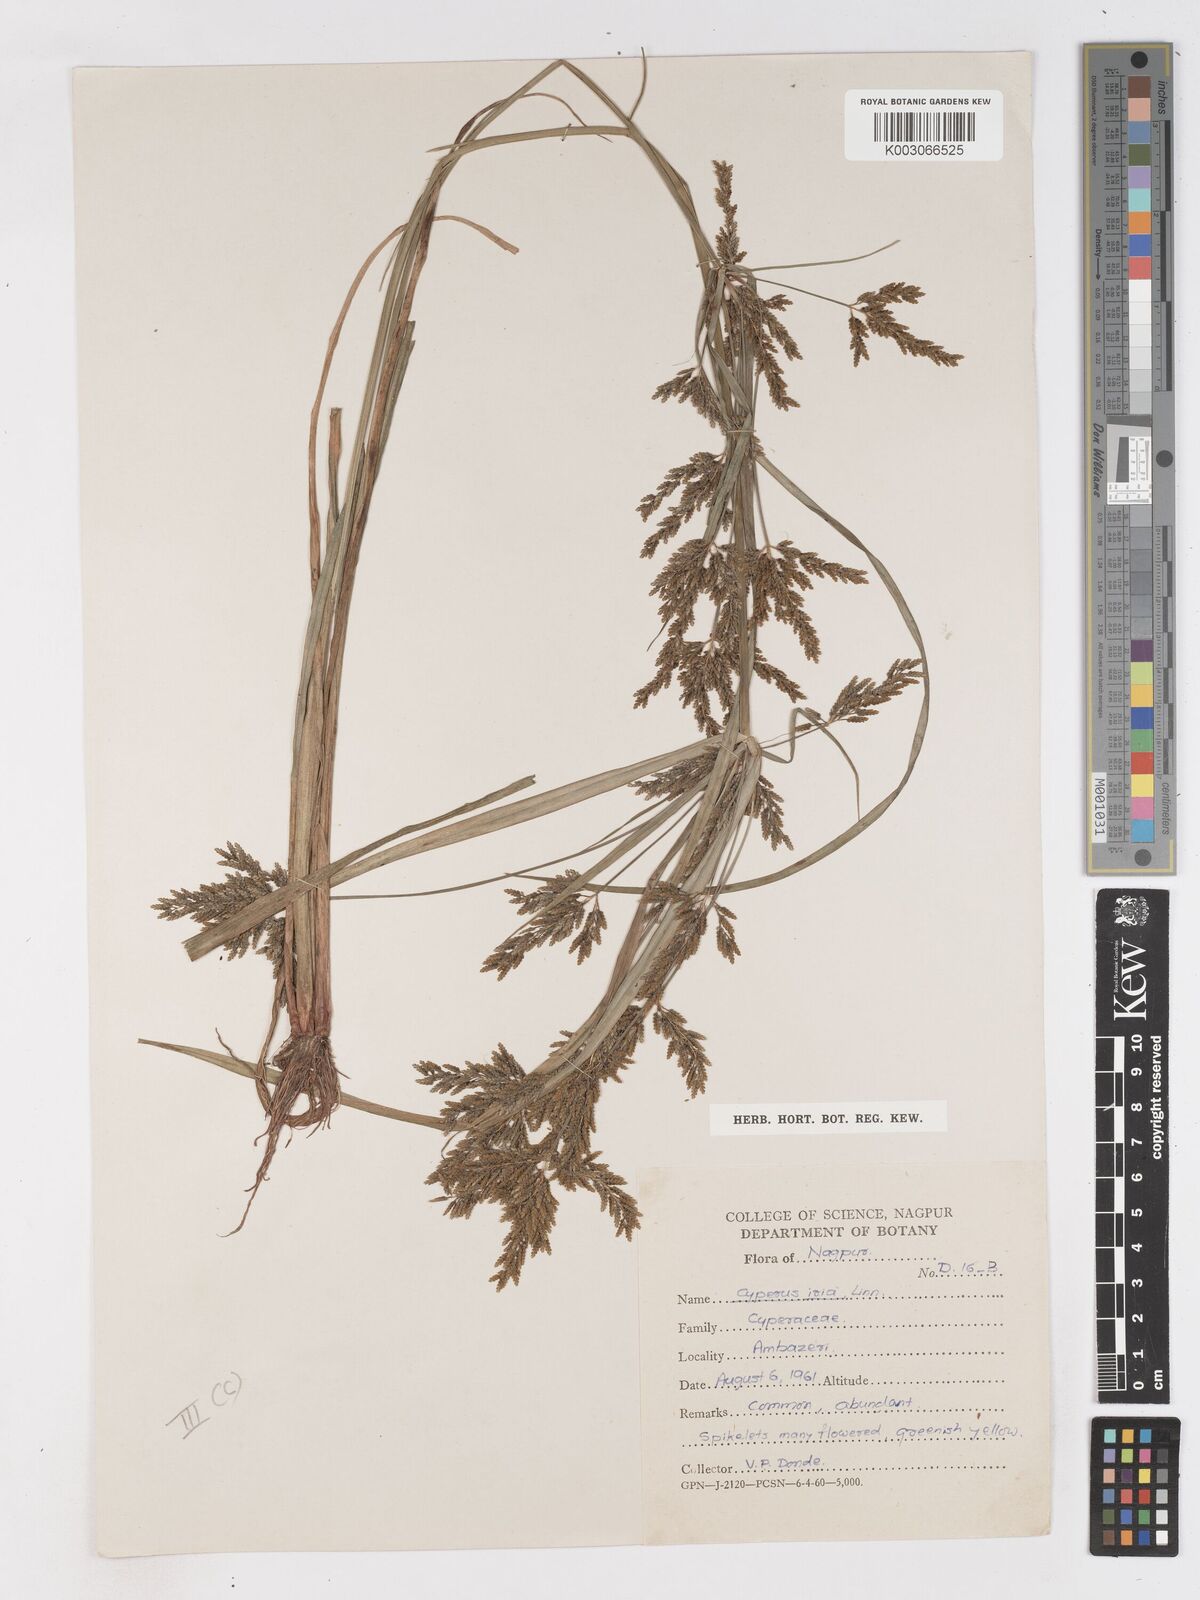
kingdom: Plantae
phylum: Tracheophyta
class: Liliopsida
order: Poales
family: Cyperaceae
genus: Cyperus
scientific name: Cyperus iria
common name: Ricefield flatsedge
